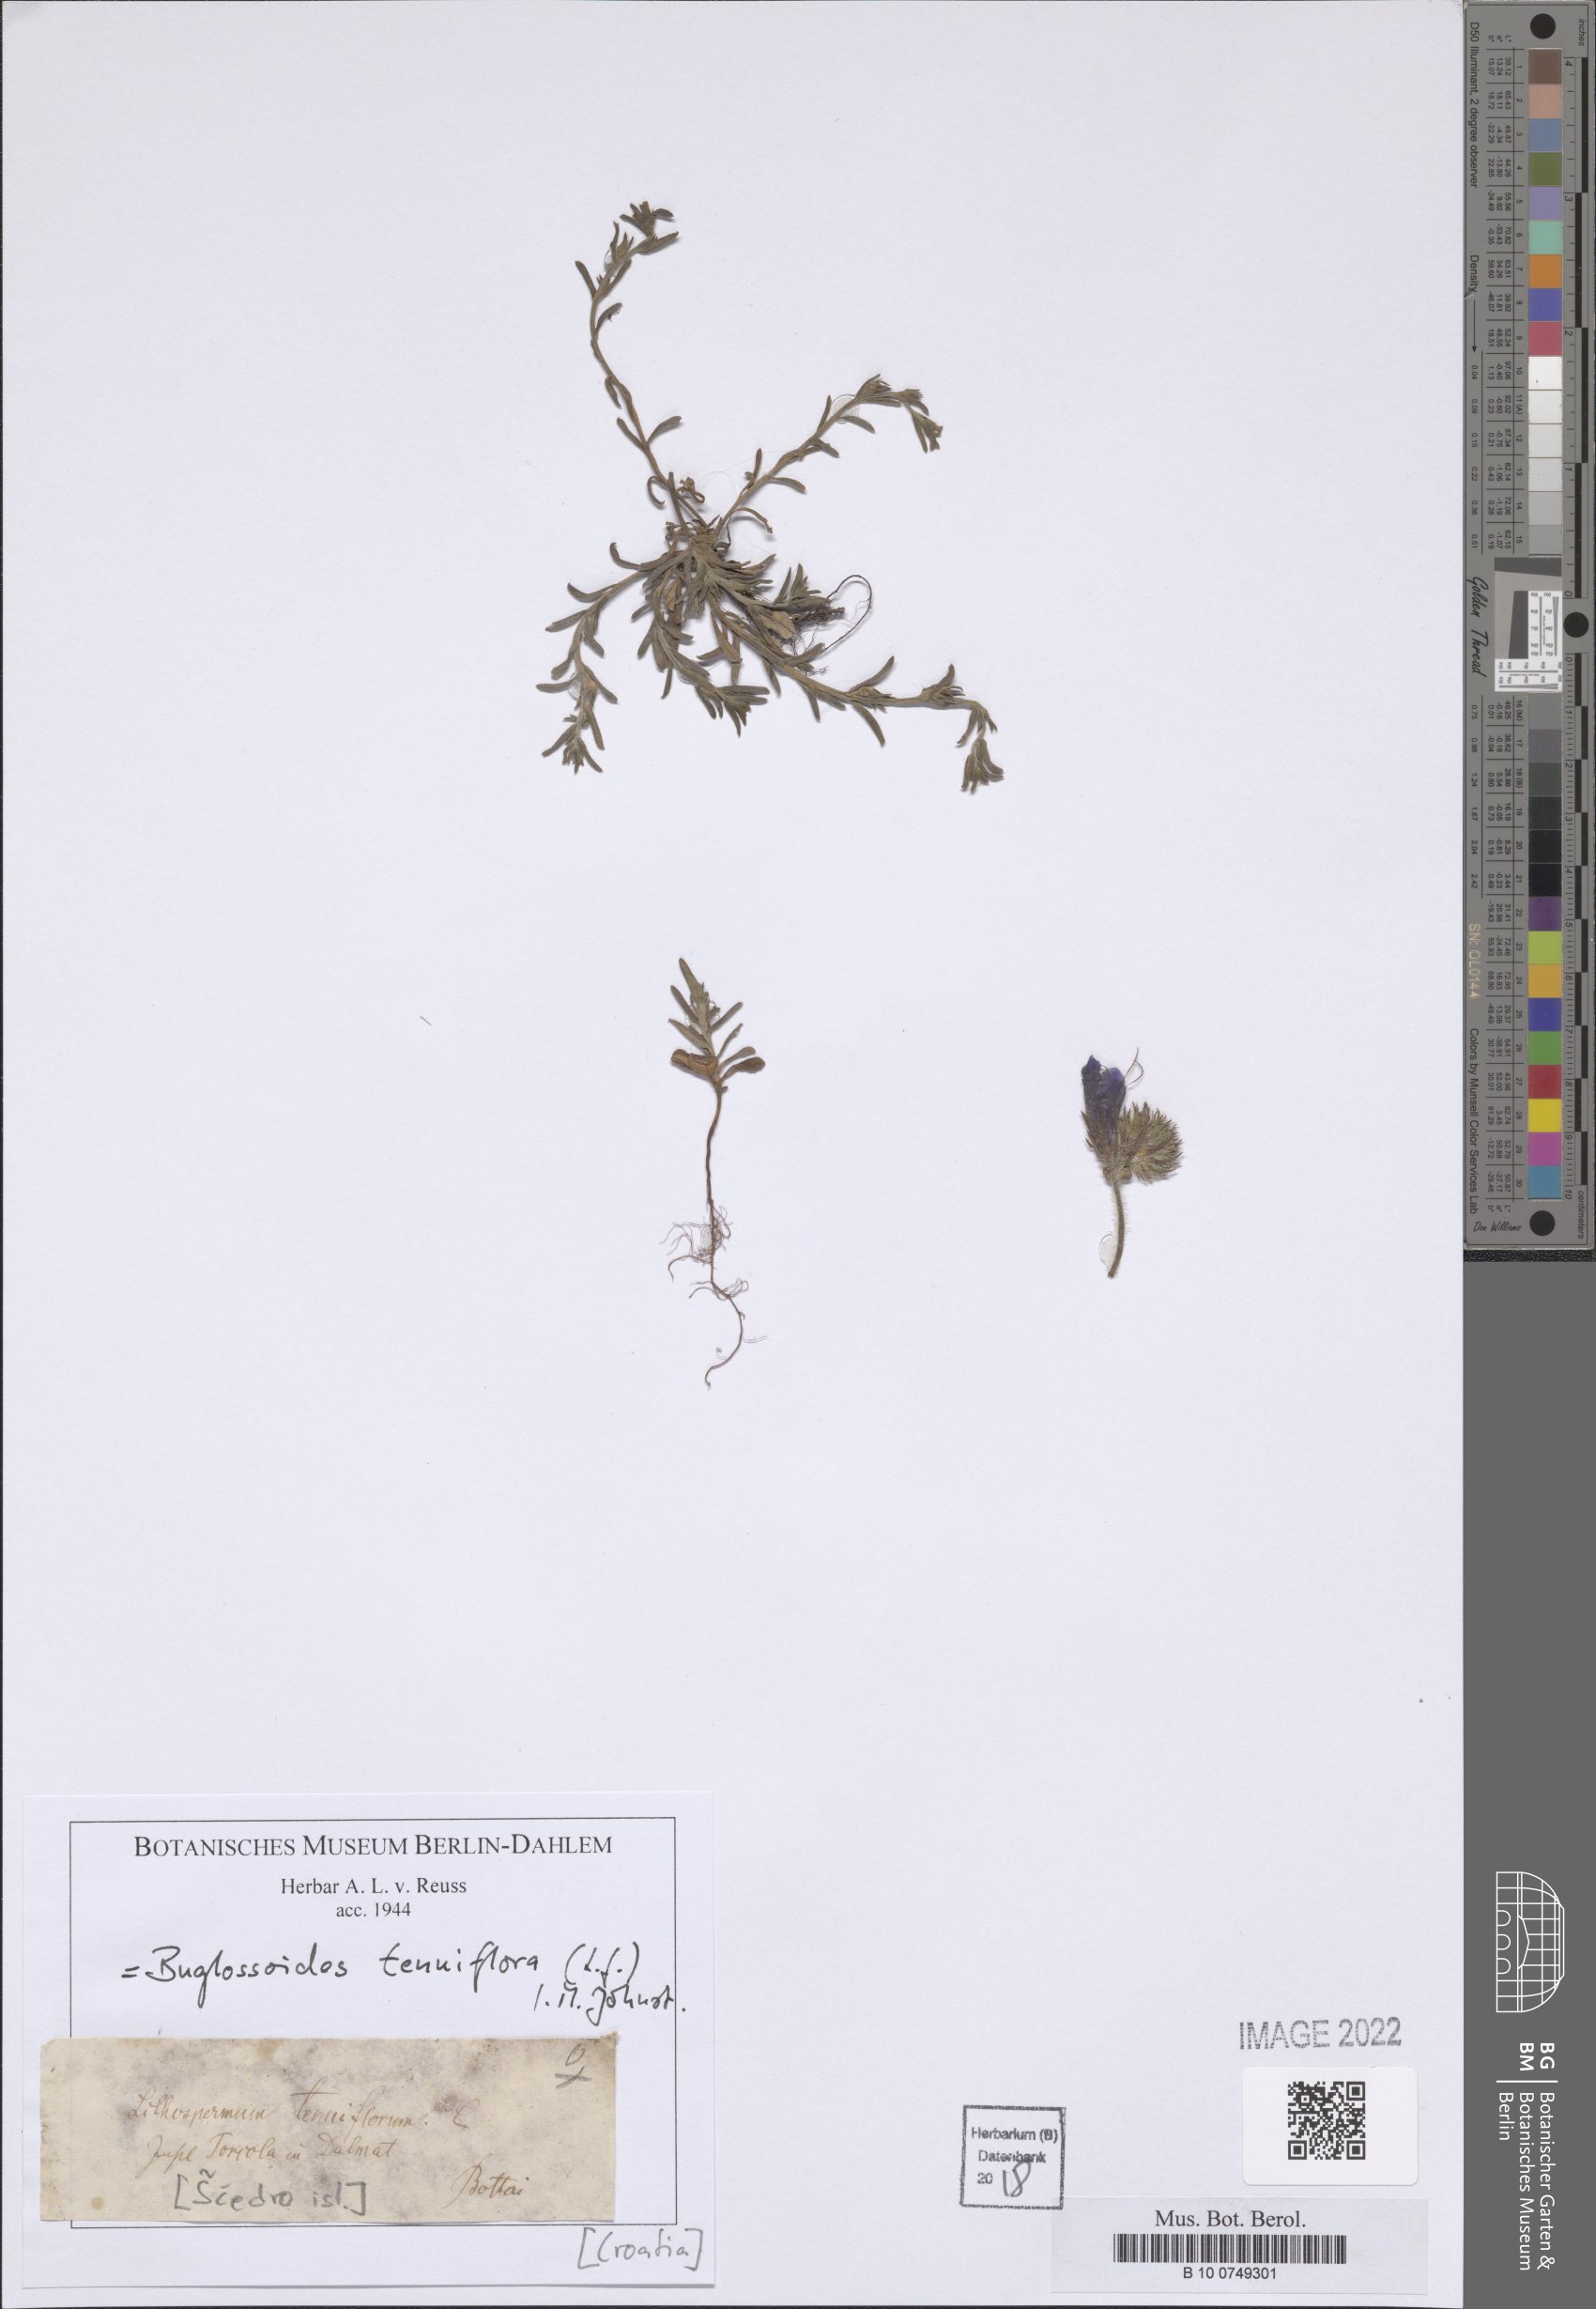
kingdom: Plantae
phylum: Tracheophyta
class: Magnoliopsida
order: Boraginales
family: Boraginaceae
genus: Buglossoides
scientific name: Buglossoides tenuiflora
